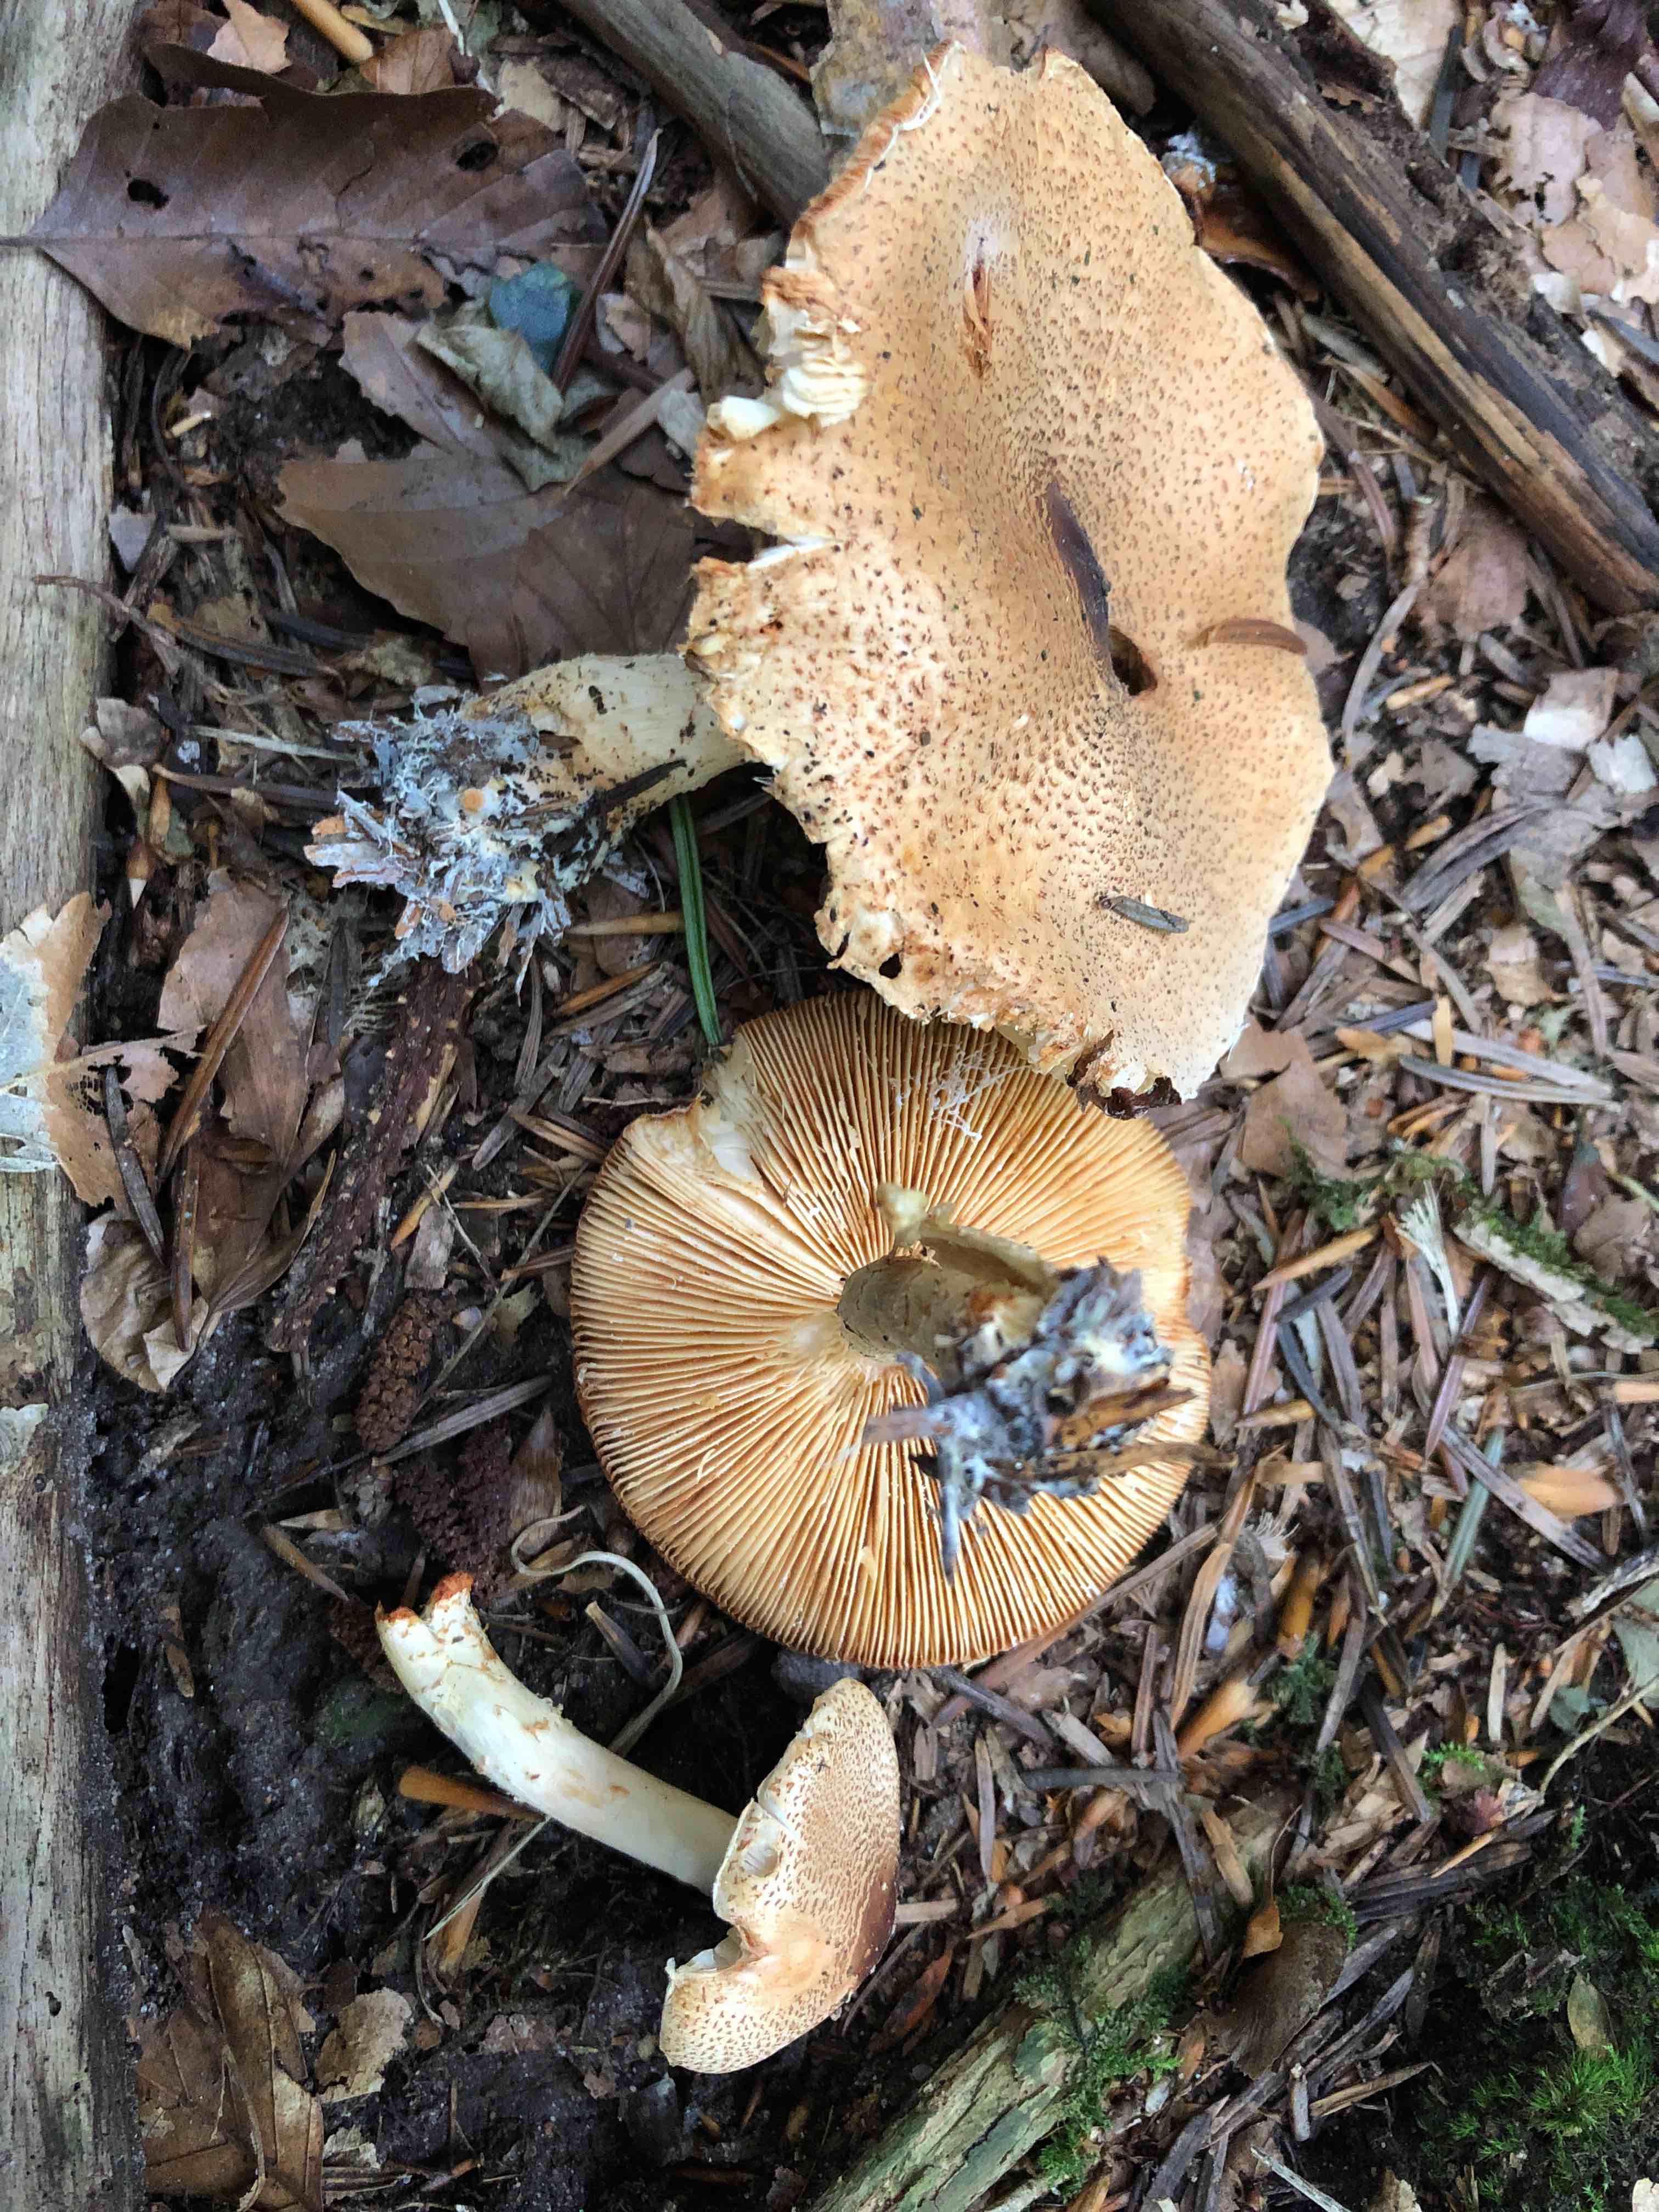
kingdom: Fungi
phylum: Basidiomycota
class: Agaricomycetes
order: Agaricales
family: Agaricaceae
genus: Lepiota
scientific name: Lepiota ochraceofulva
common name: sødtduftende parasolhat
